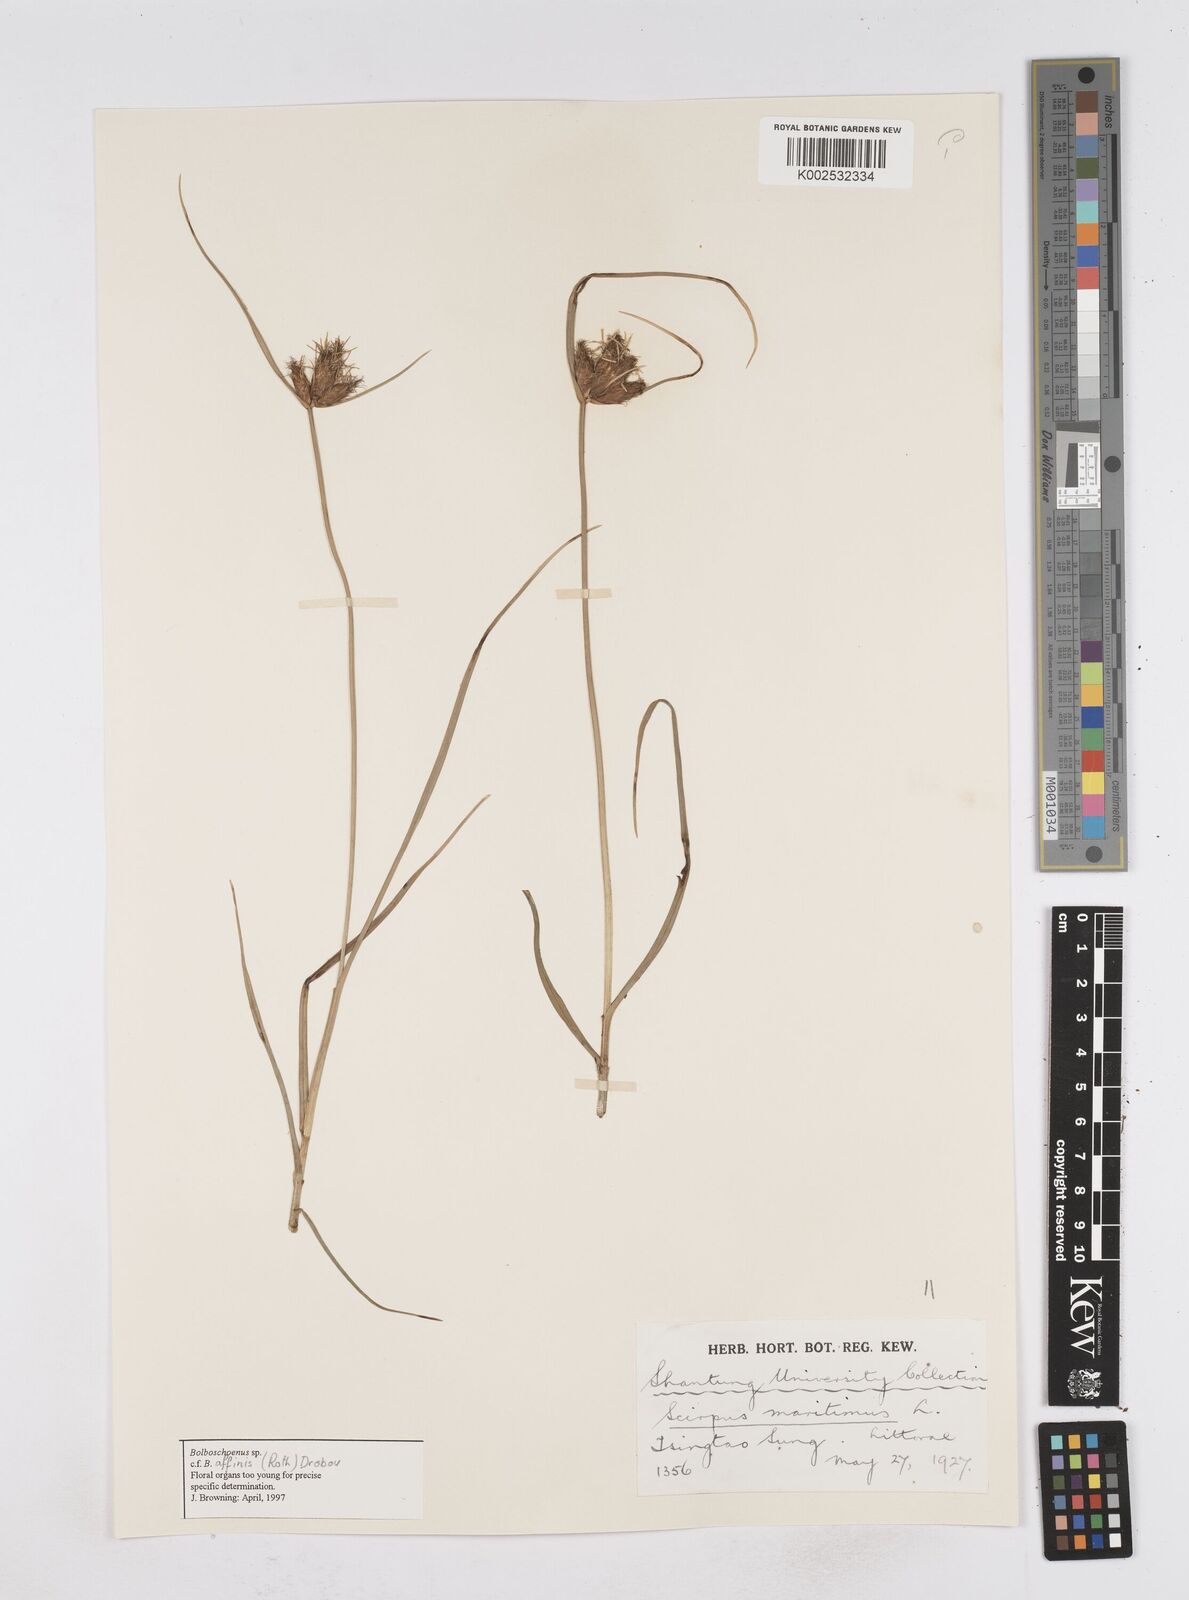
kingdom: Plantae
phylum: Tracheophyta
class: Liliopsida
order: Poales
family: Cyperaceae
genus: Bolboschoenus
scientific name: Bolboschoenus maritimus
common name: Sea club-rush
